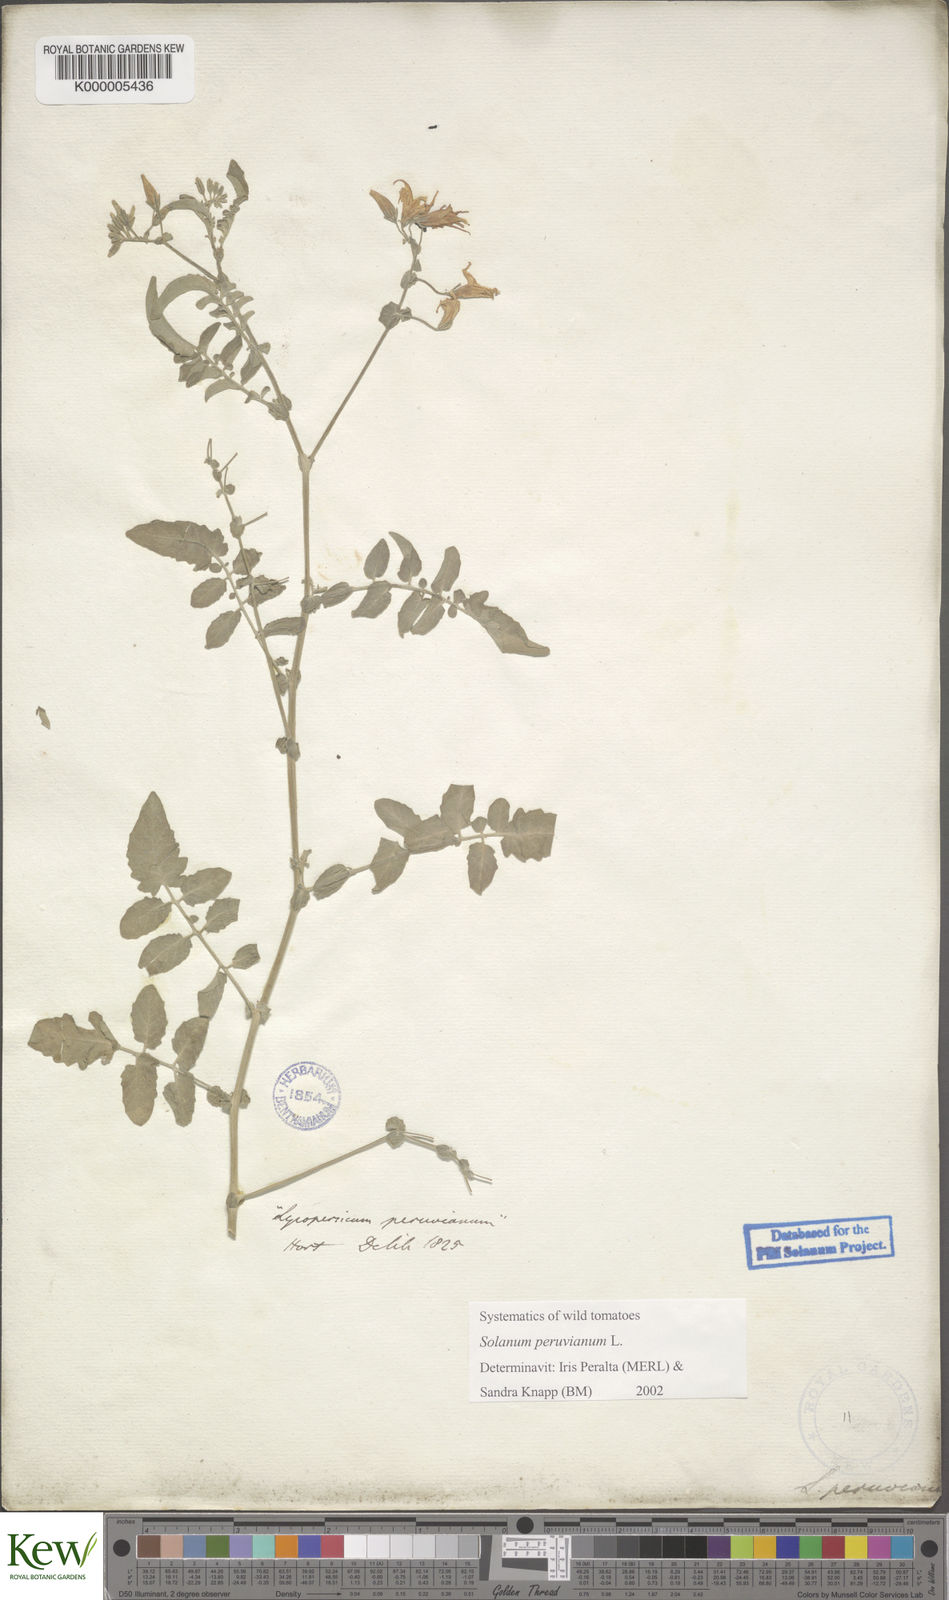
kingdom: Plantae
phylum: Tracheophyta
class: Magnoliopsida
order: Solanales
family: Solanaceae
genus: Solanum
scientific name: Solanum peruvianum
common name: Peruvian nightshade
